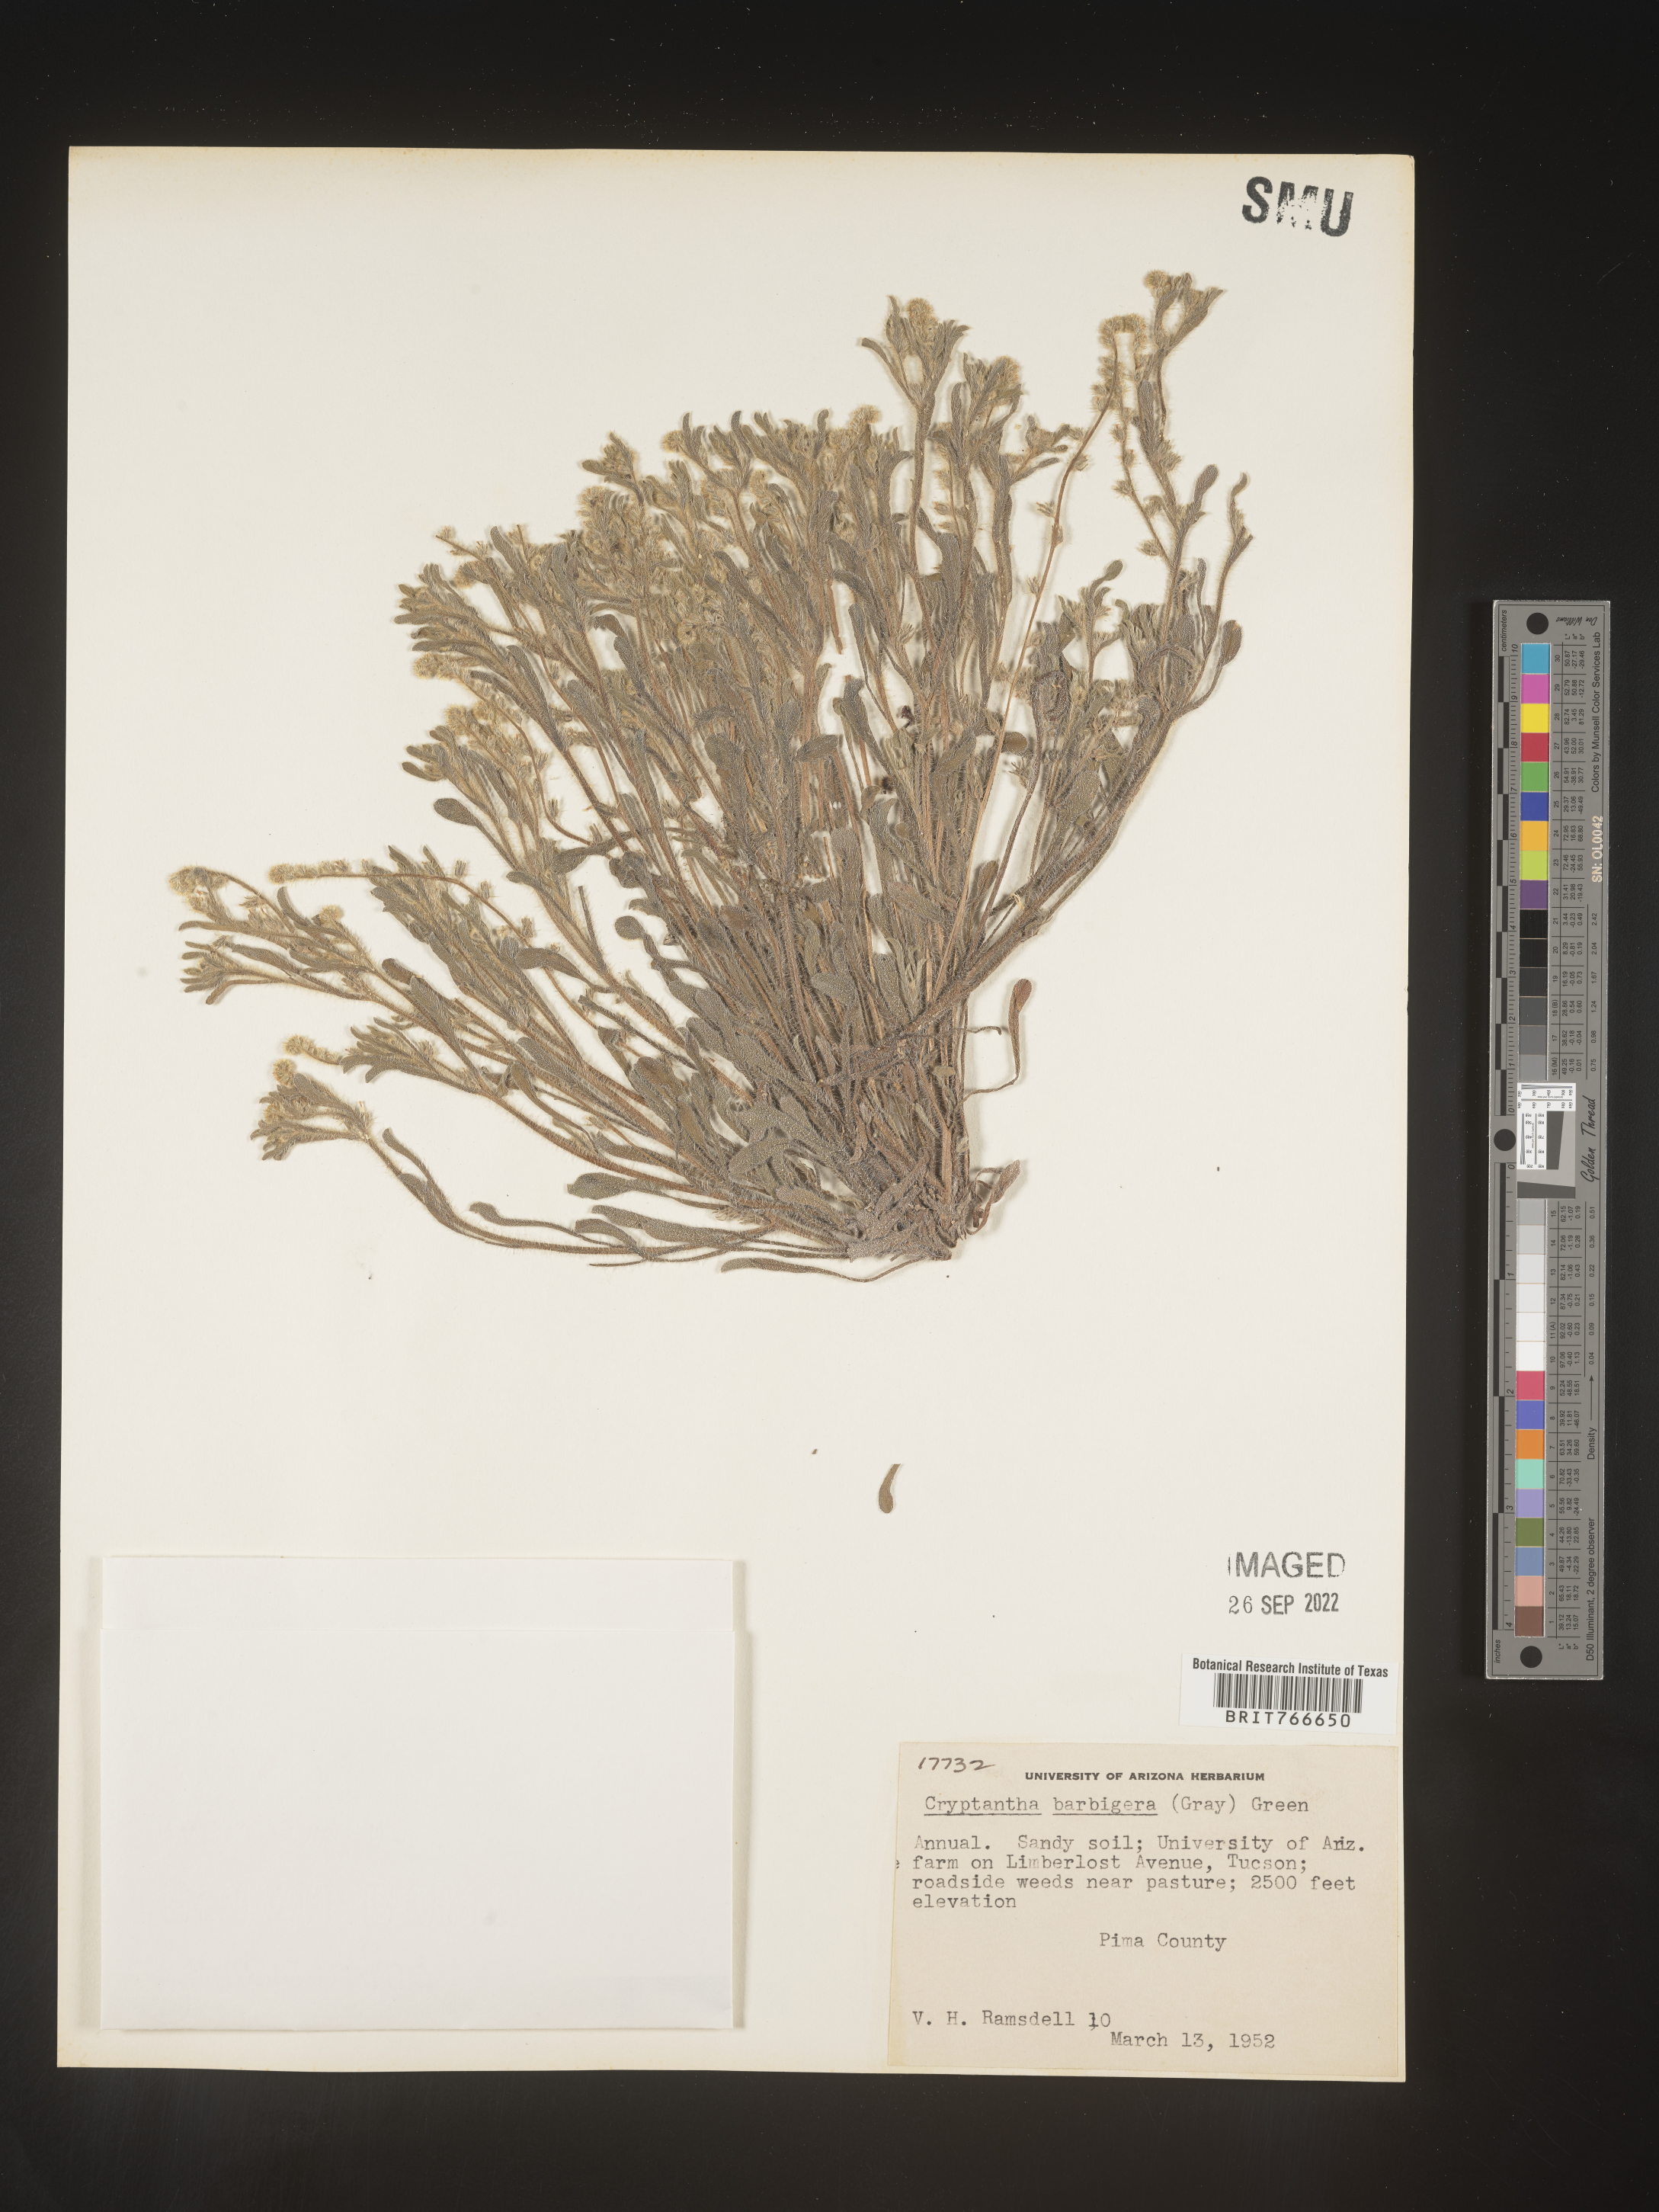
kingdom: Plantae
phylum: Tracheophyta
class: Magnoliopsida
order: Boraginales
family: Boraginaceae
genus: Cryptantha
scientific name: Cryptantha
